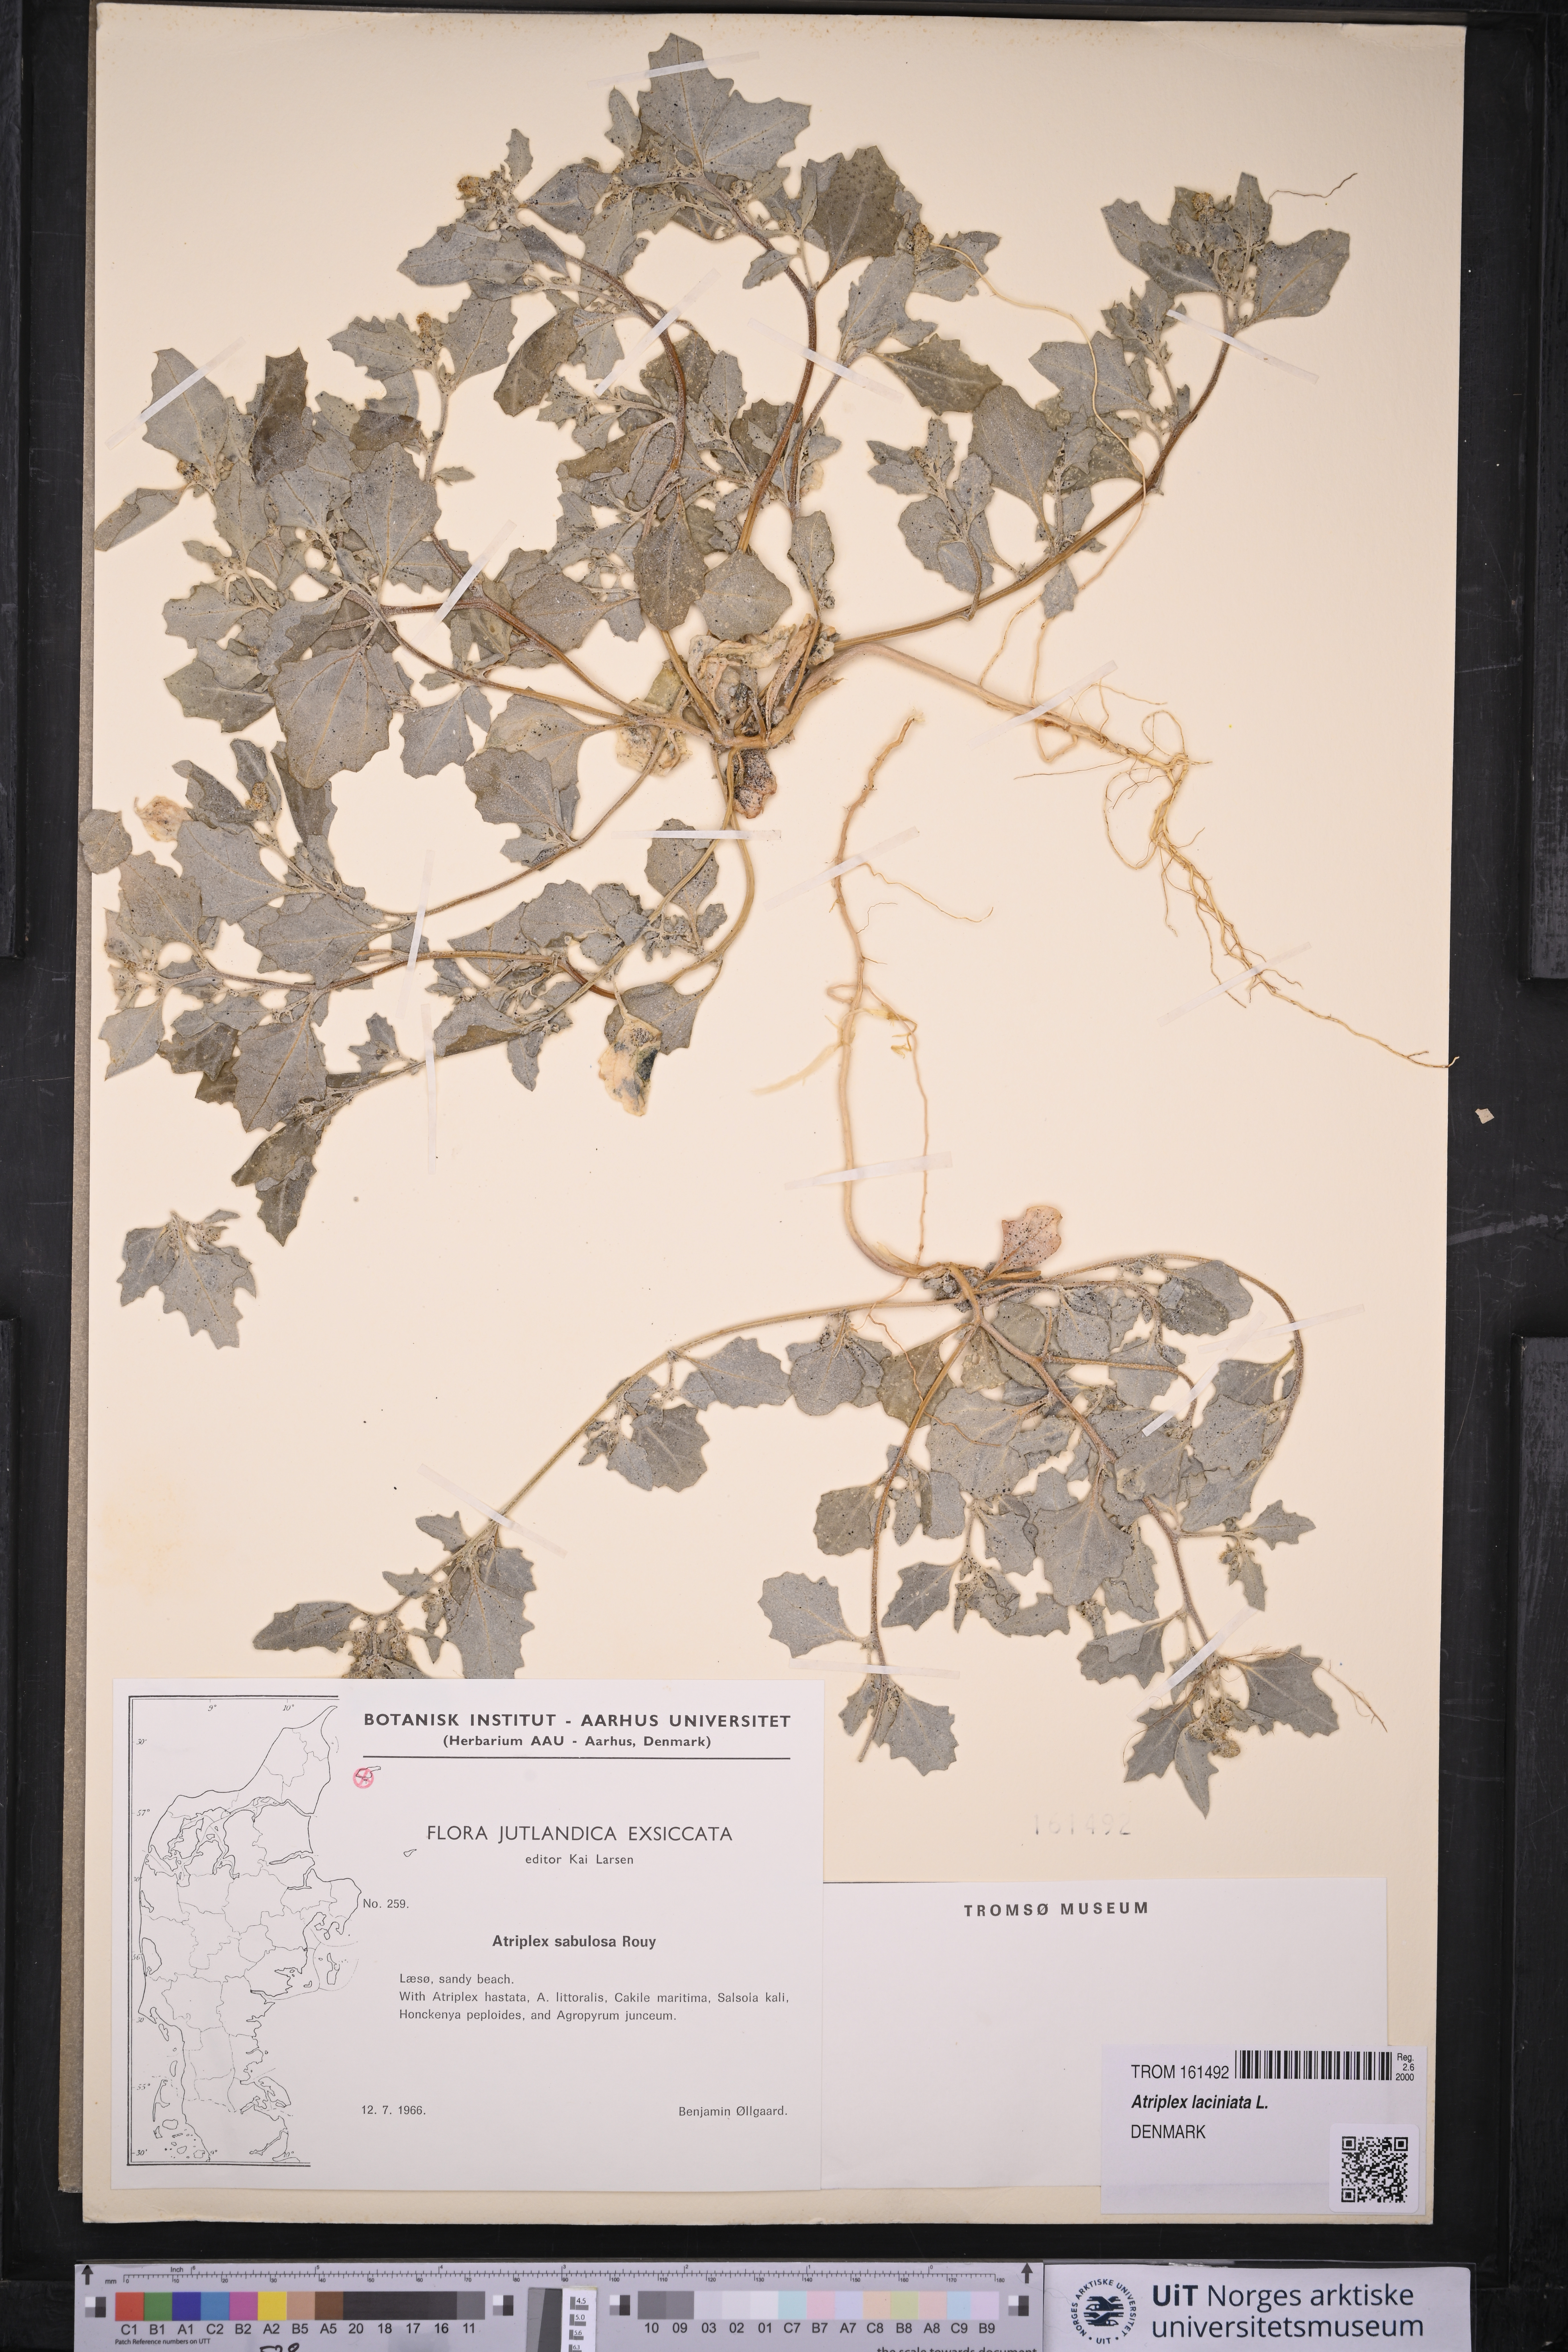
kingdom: Plantae
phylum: Tracheophyta
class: Magnoliopsida
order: Caryophyllales
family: Amaranthaceae
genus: Atriplex
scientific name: Atriplex laciniata
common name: Frosted orache
